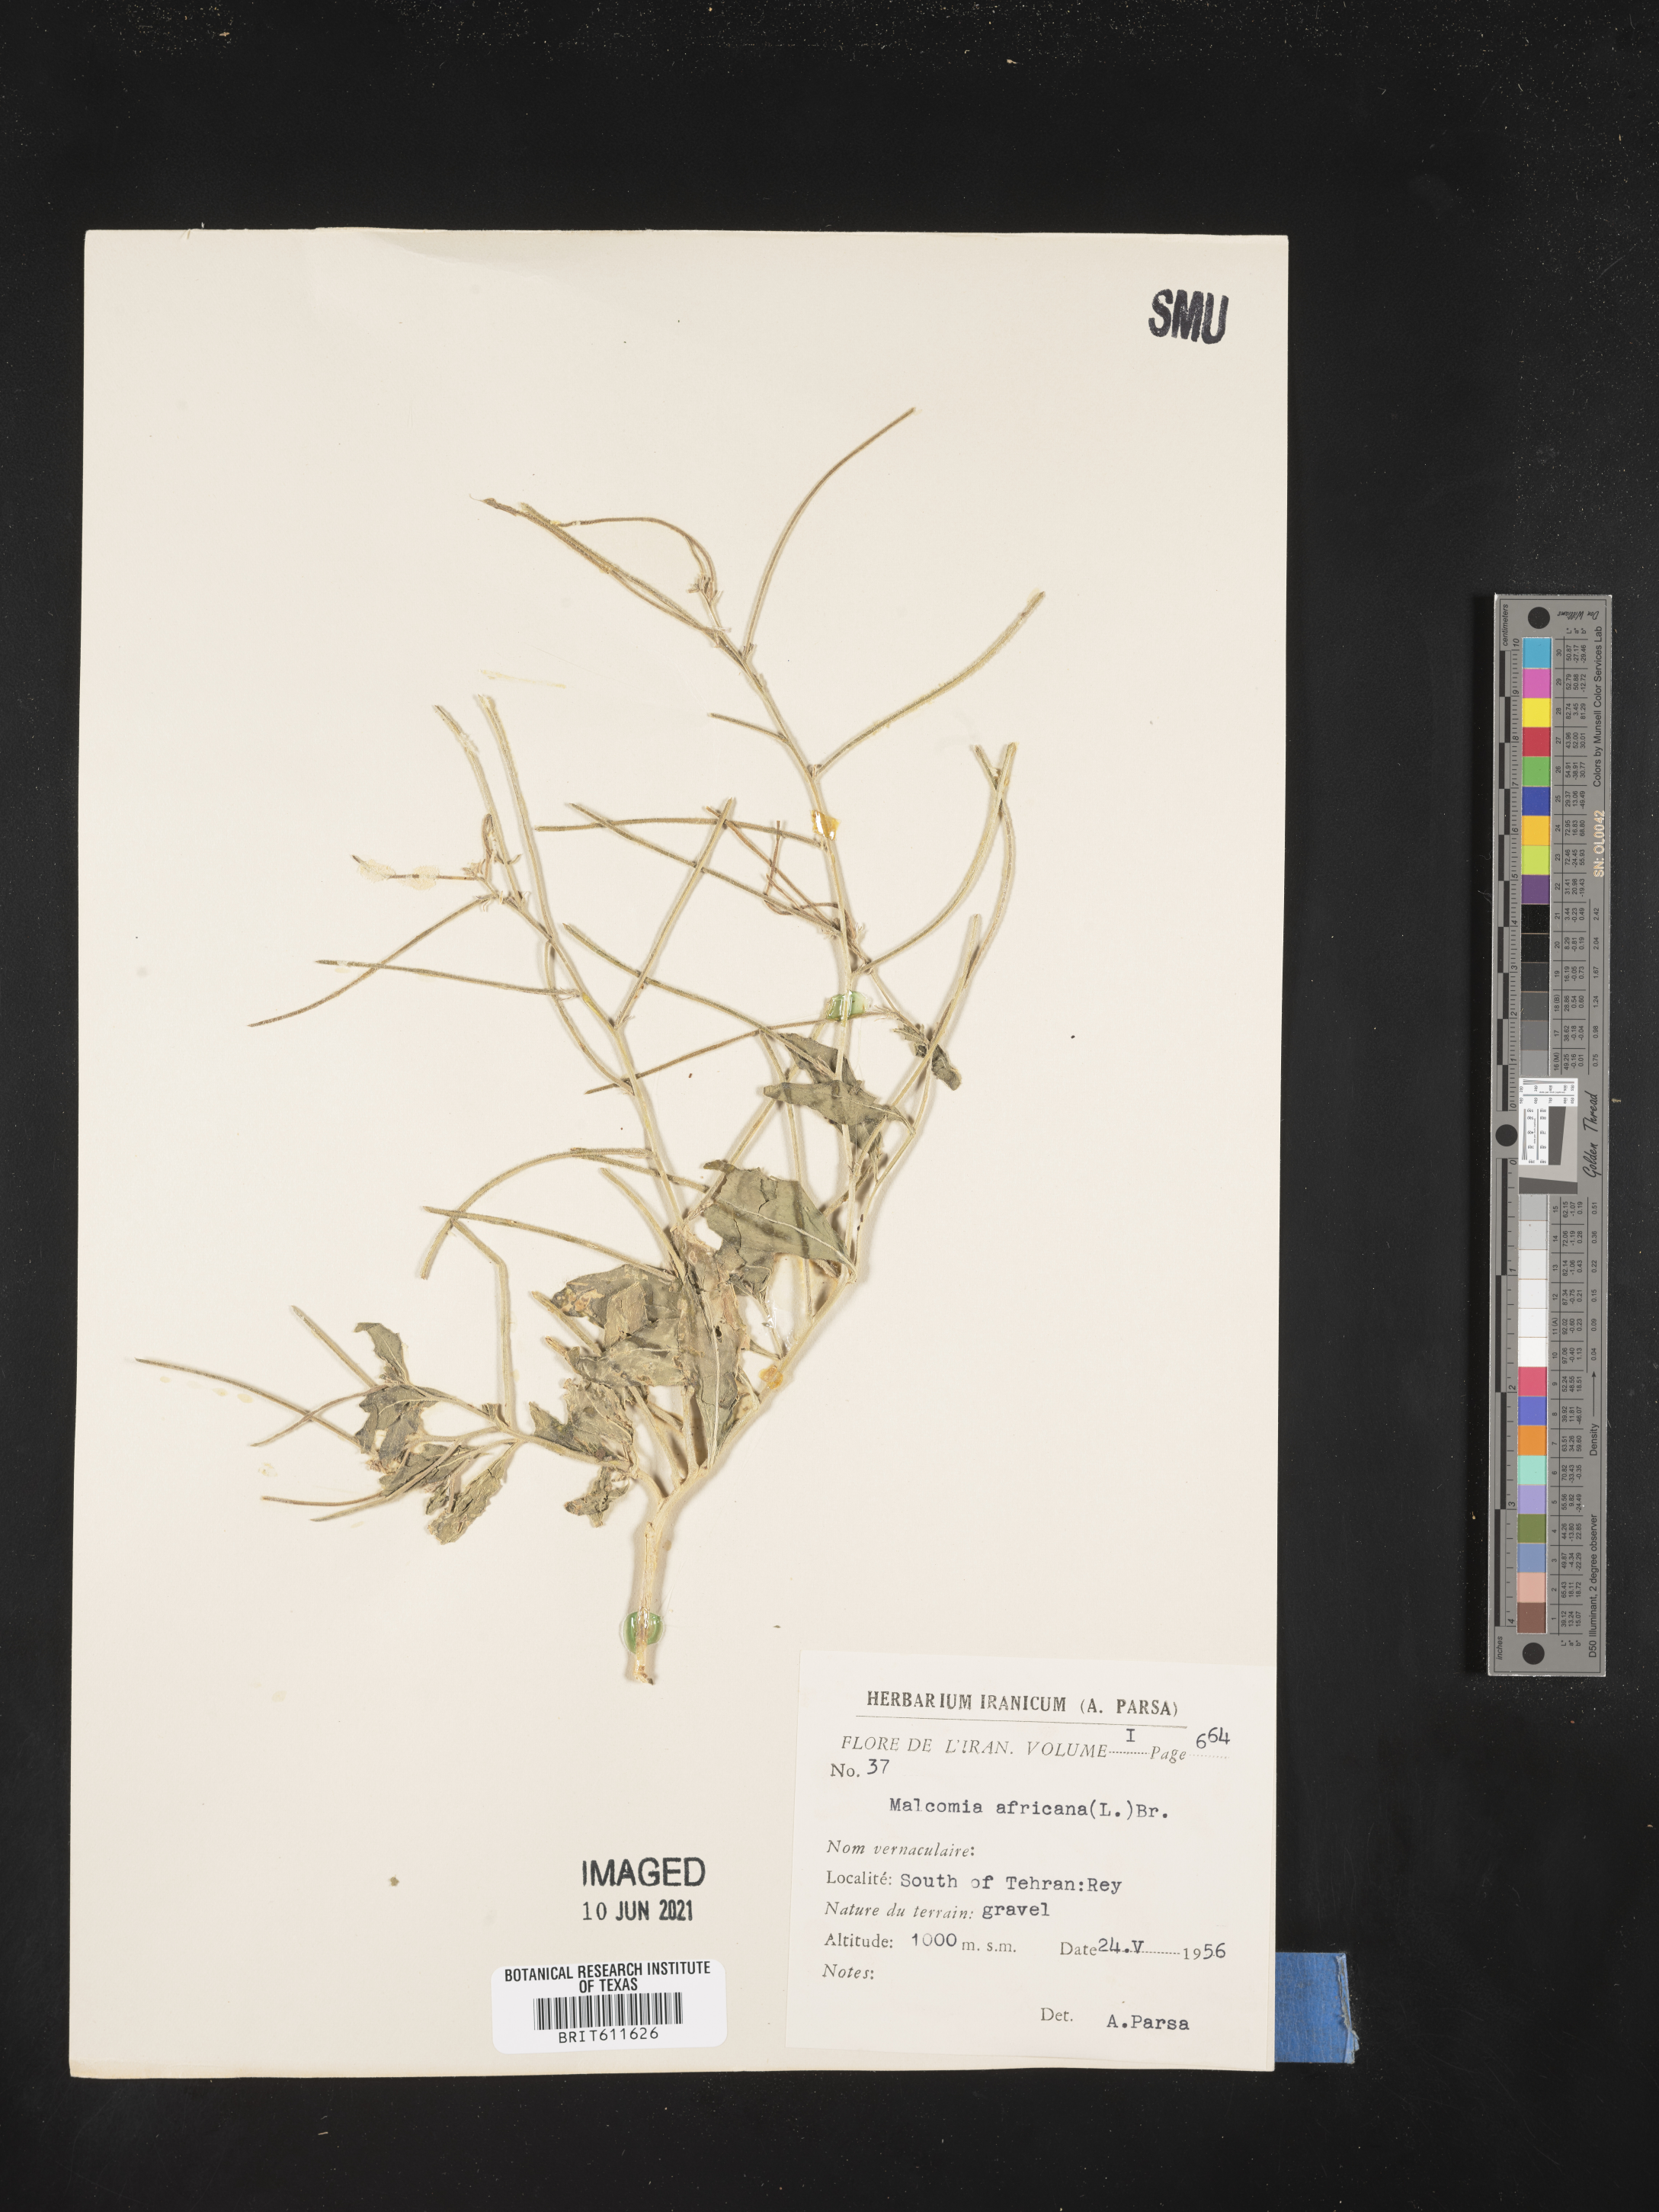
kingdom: Plantae
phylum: Tracheophyta
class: Magnoliopsida
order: Brassicales
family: Brassicaceae
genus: Strigosella
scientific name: Strigosella africana
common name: African mustard
